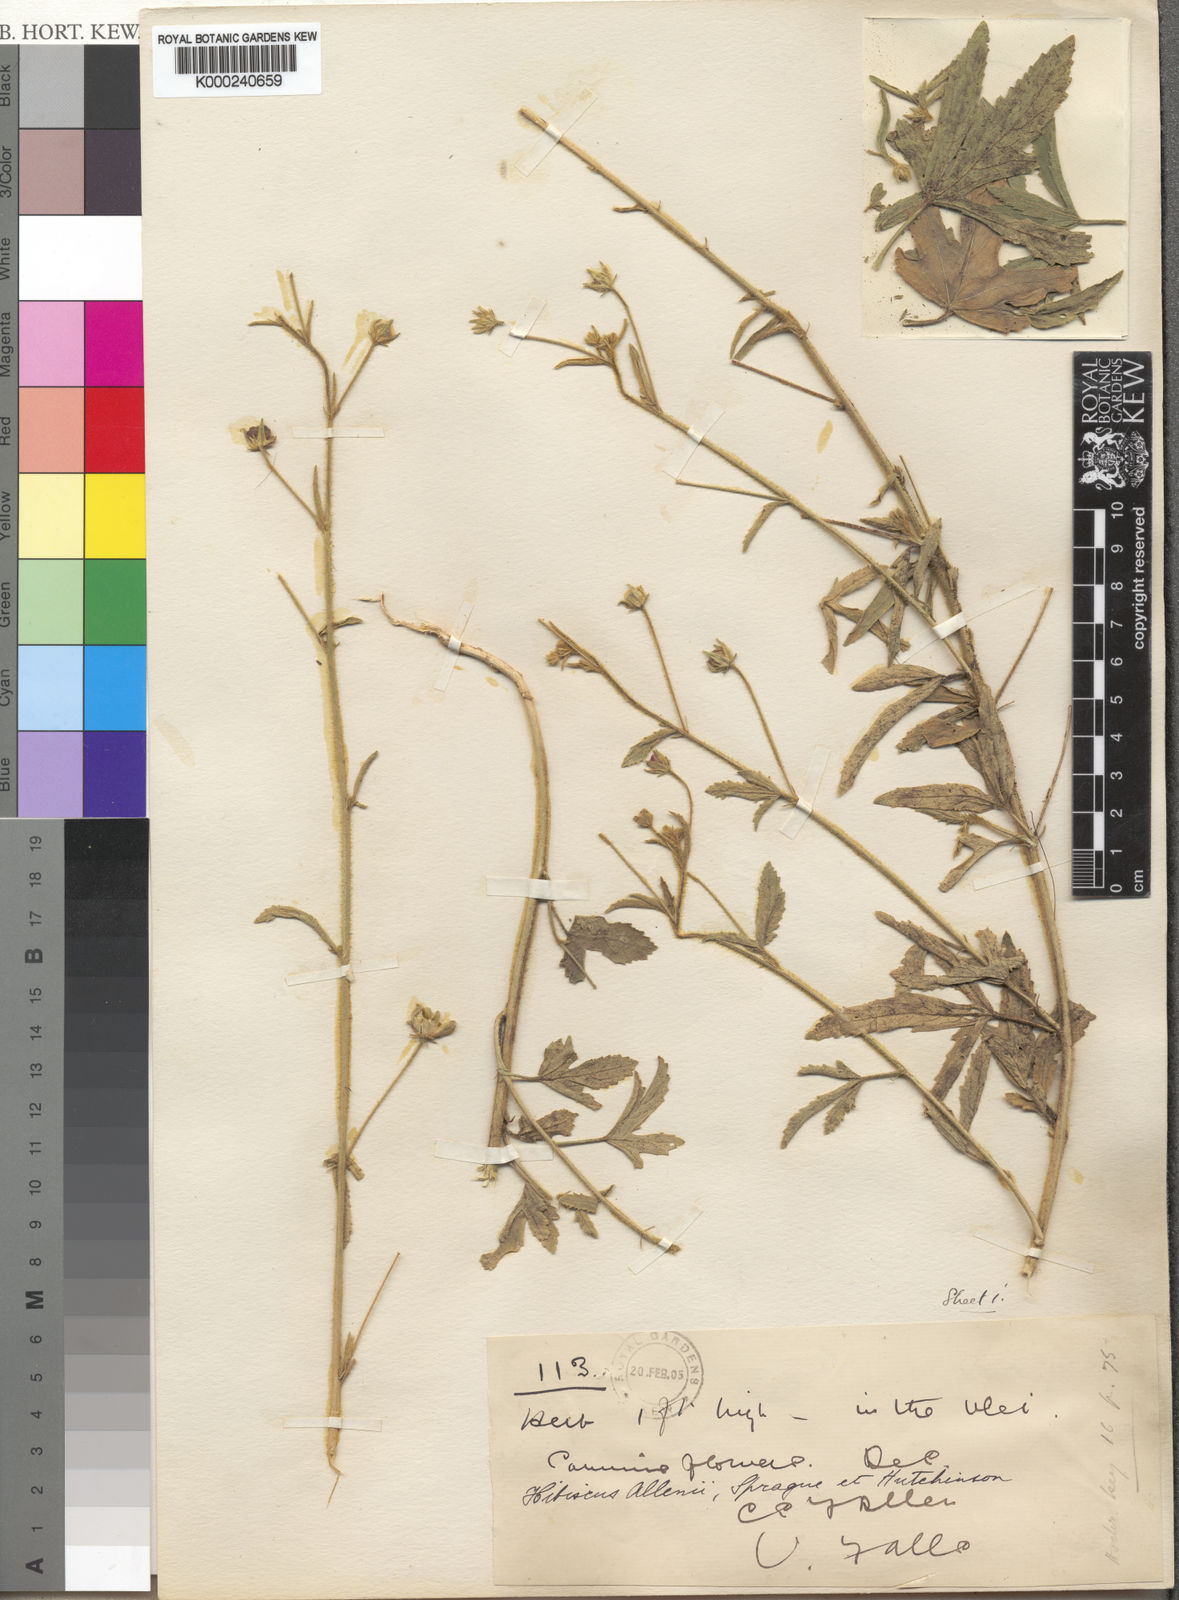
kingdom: Plantae
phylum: Tracheophyta
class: Magnoliopsida
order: Malvales
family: Malvaceae
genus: Hibiscus
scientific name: Hibiscus allenii
